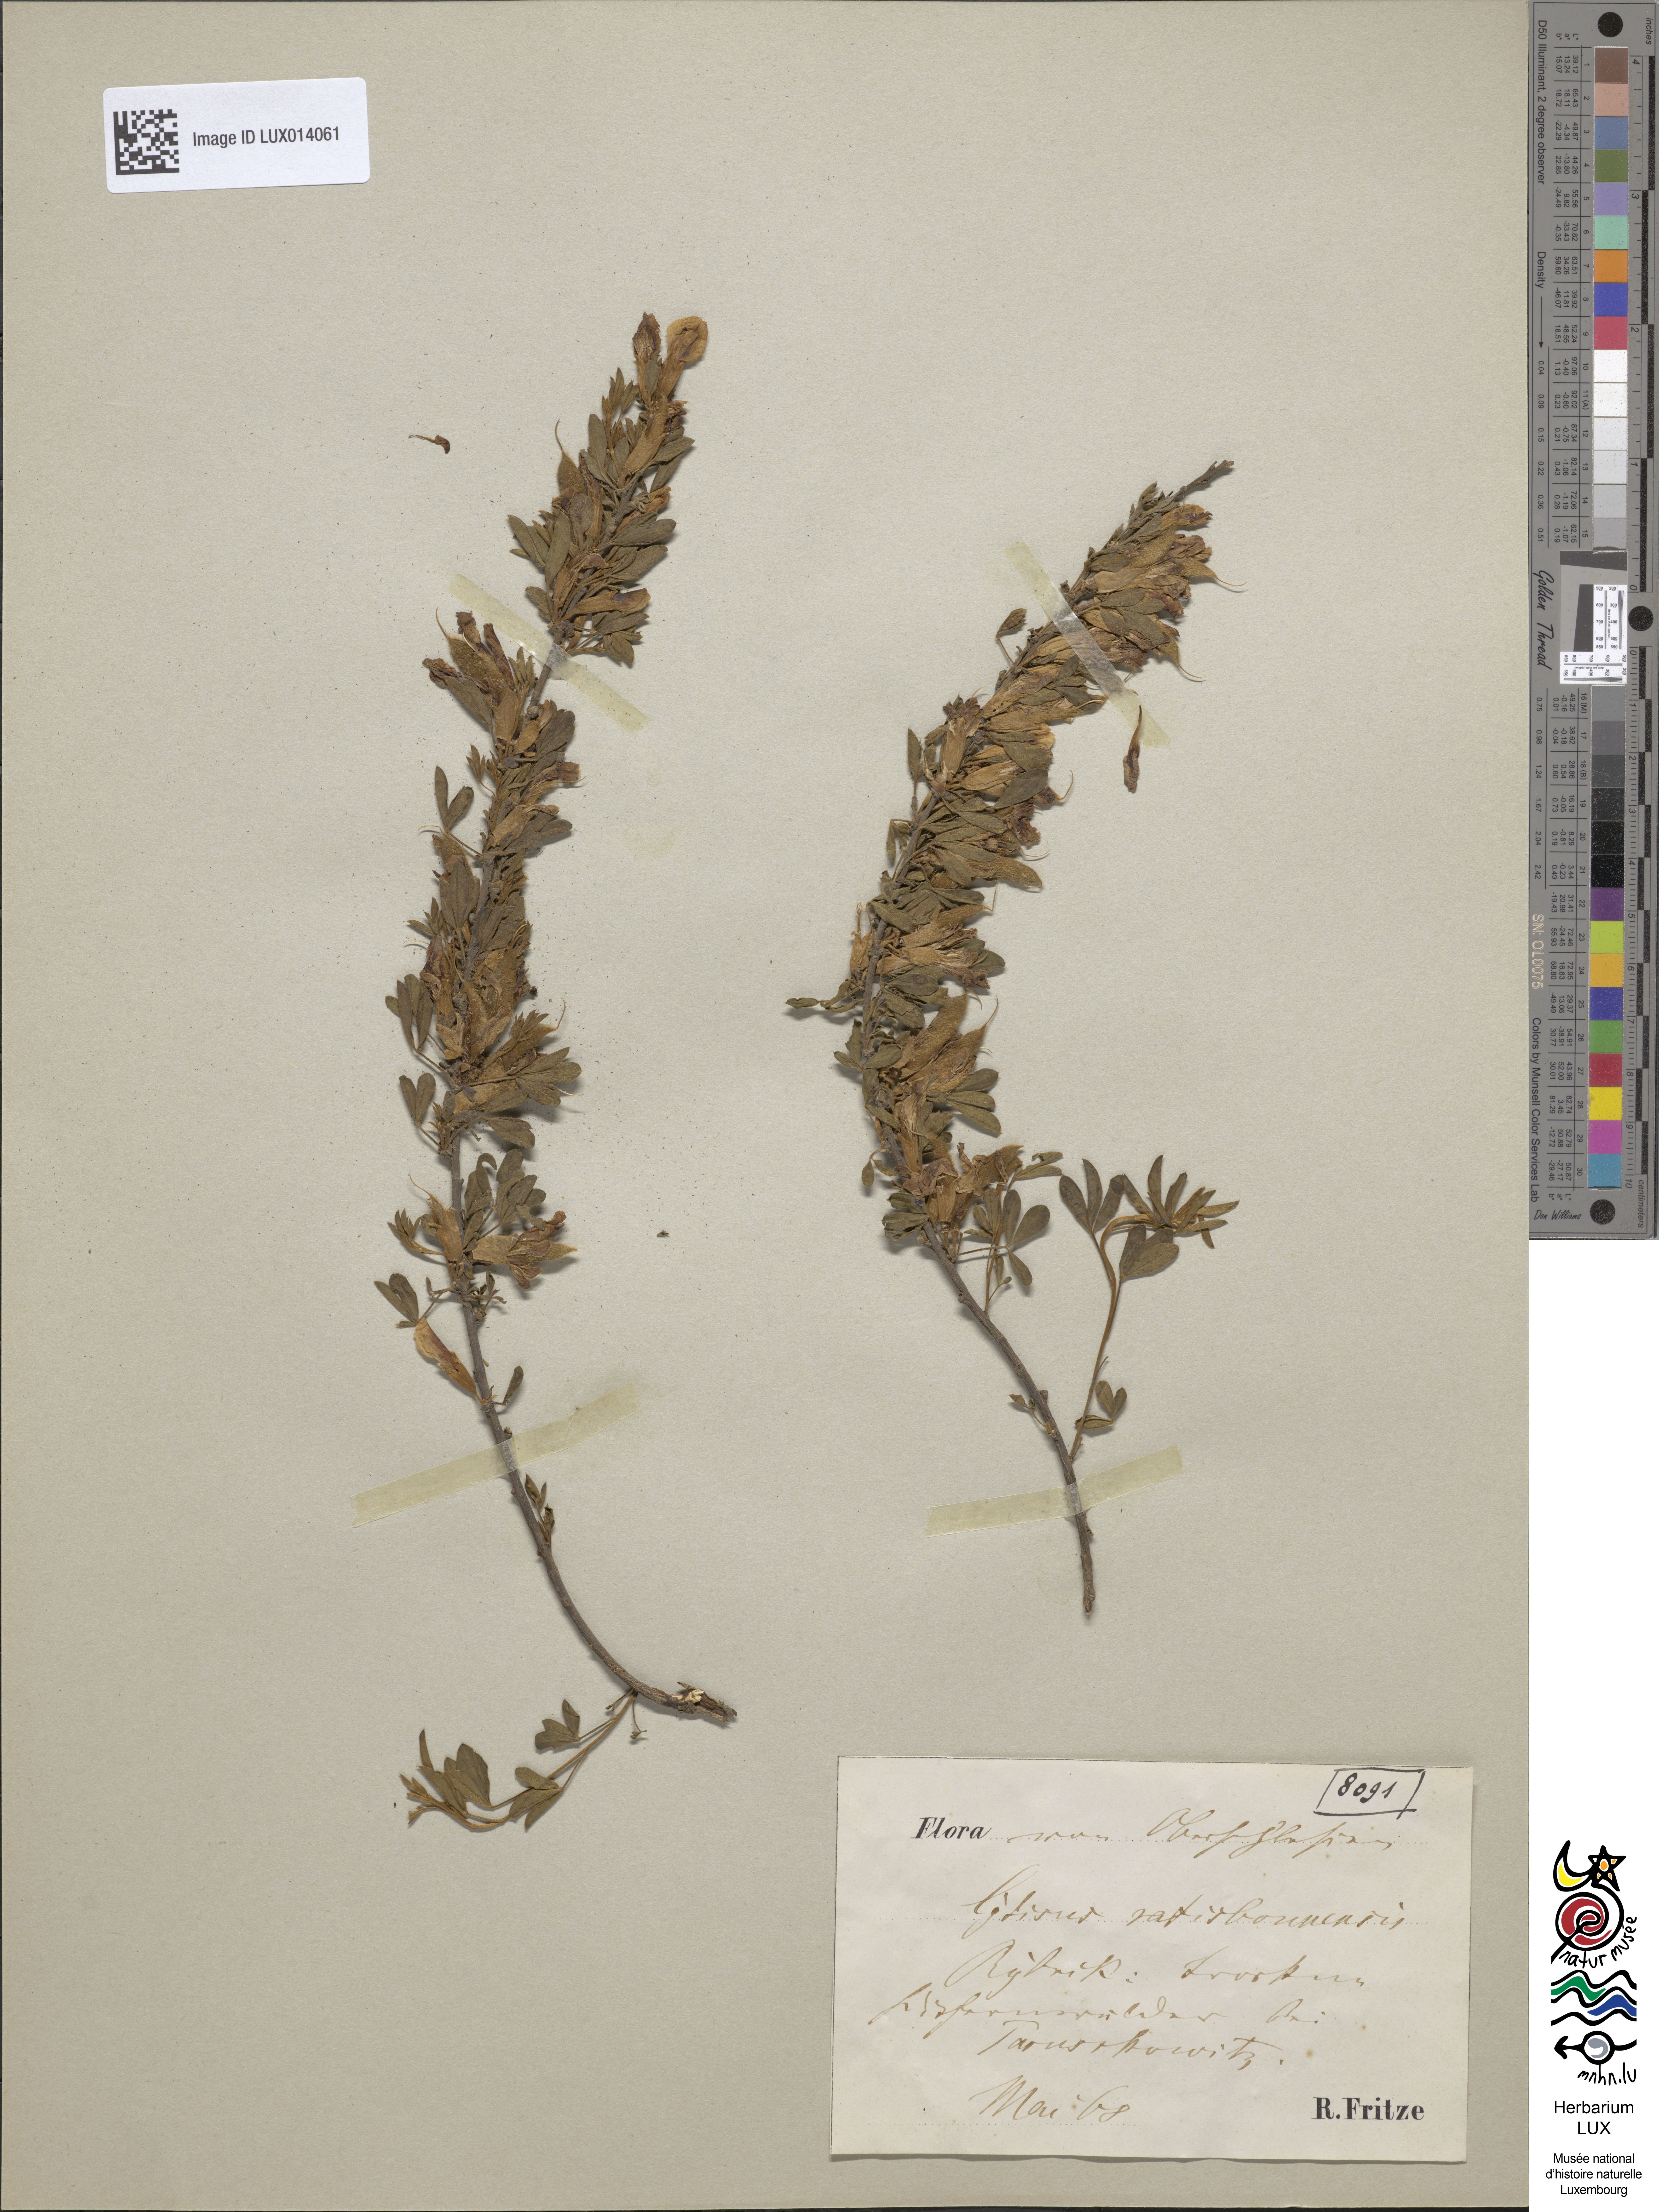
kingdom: Plantae
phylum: Tracheophyta
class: Magnoliopsida
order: Fabales
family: Fabaceae
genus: Chamaecytisus
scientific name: Chamaecytisus ratisbonensis
